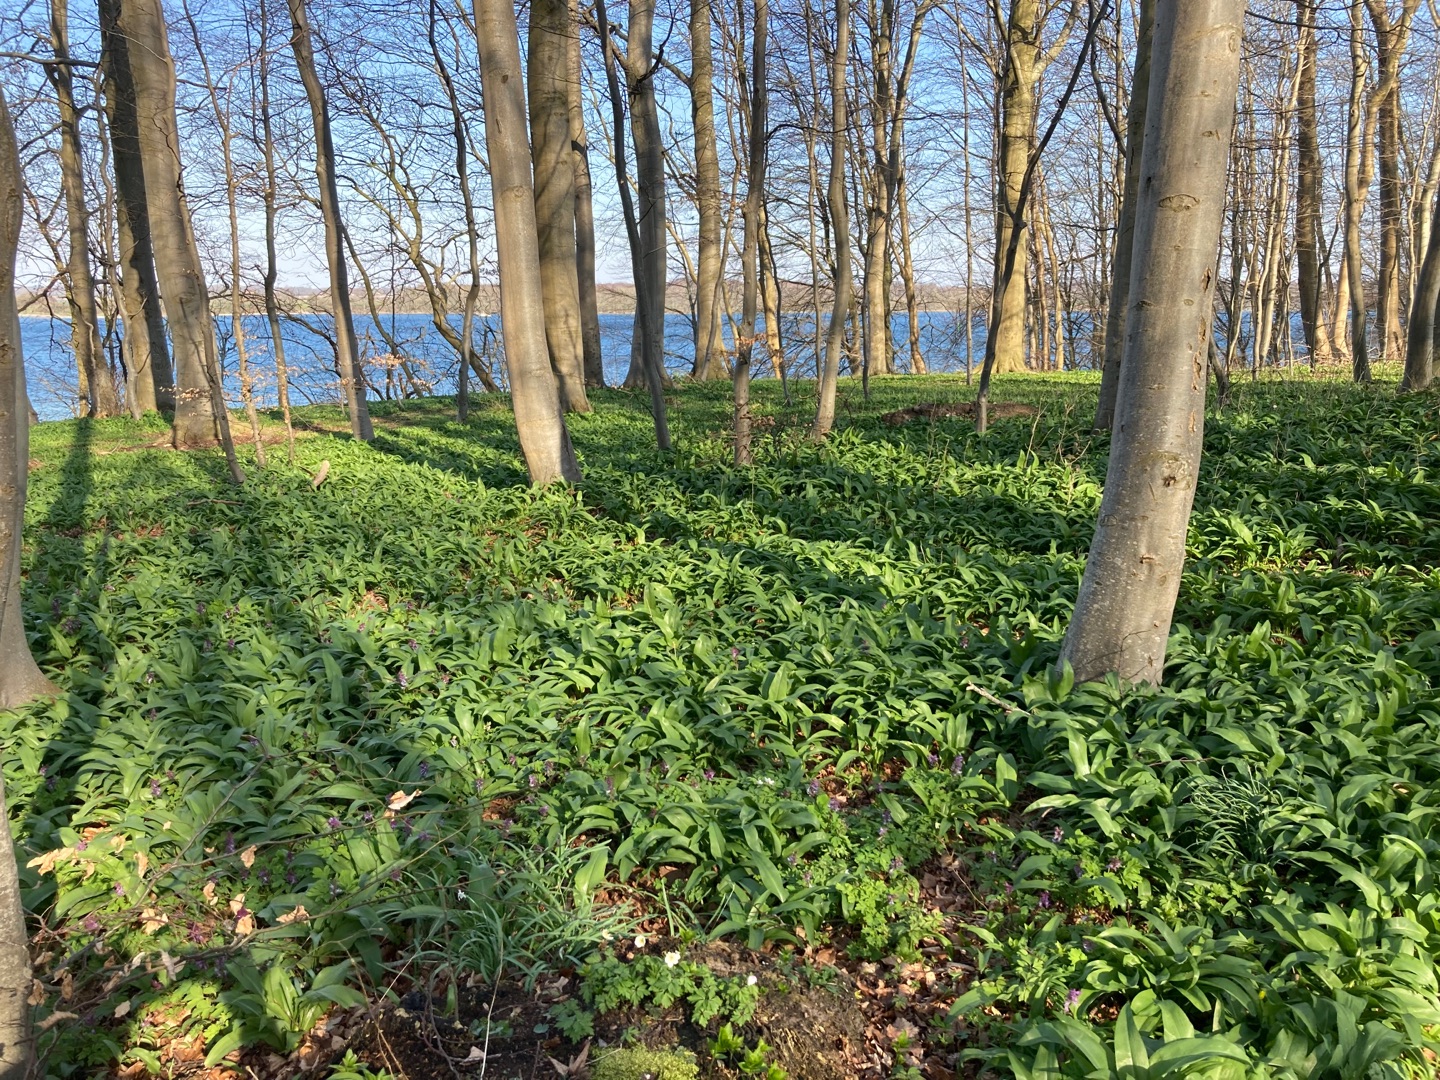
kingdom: Plantae
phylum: Tracheophyta
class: Liliopsida
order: Asparagales
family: Amaryllidaceae
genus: Allium
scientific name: Allium ursinum
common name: Rams-løg
